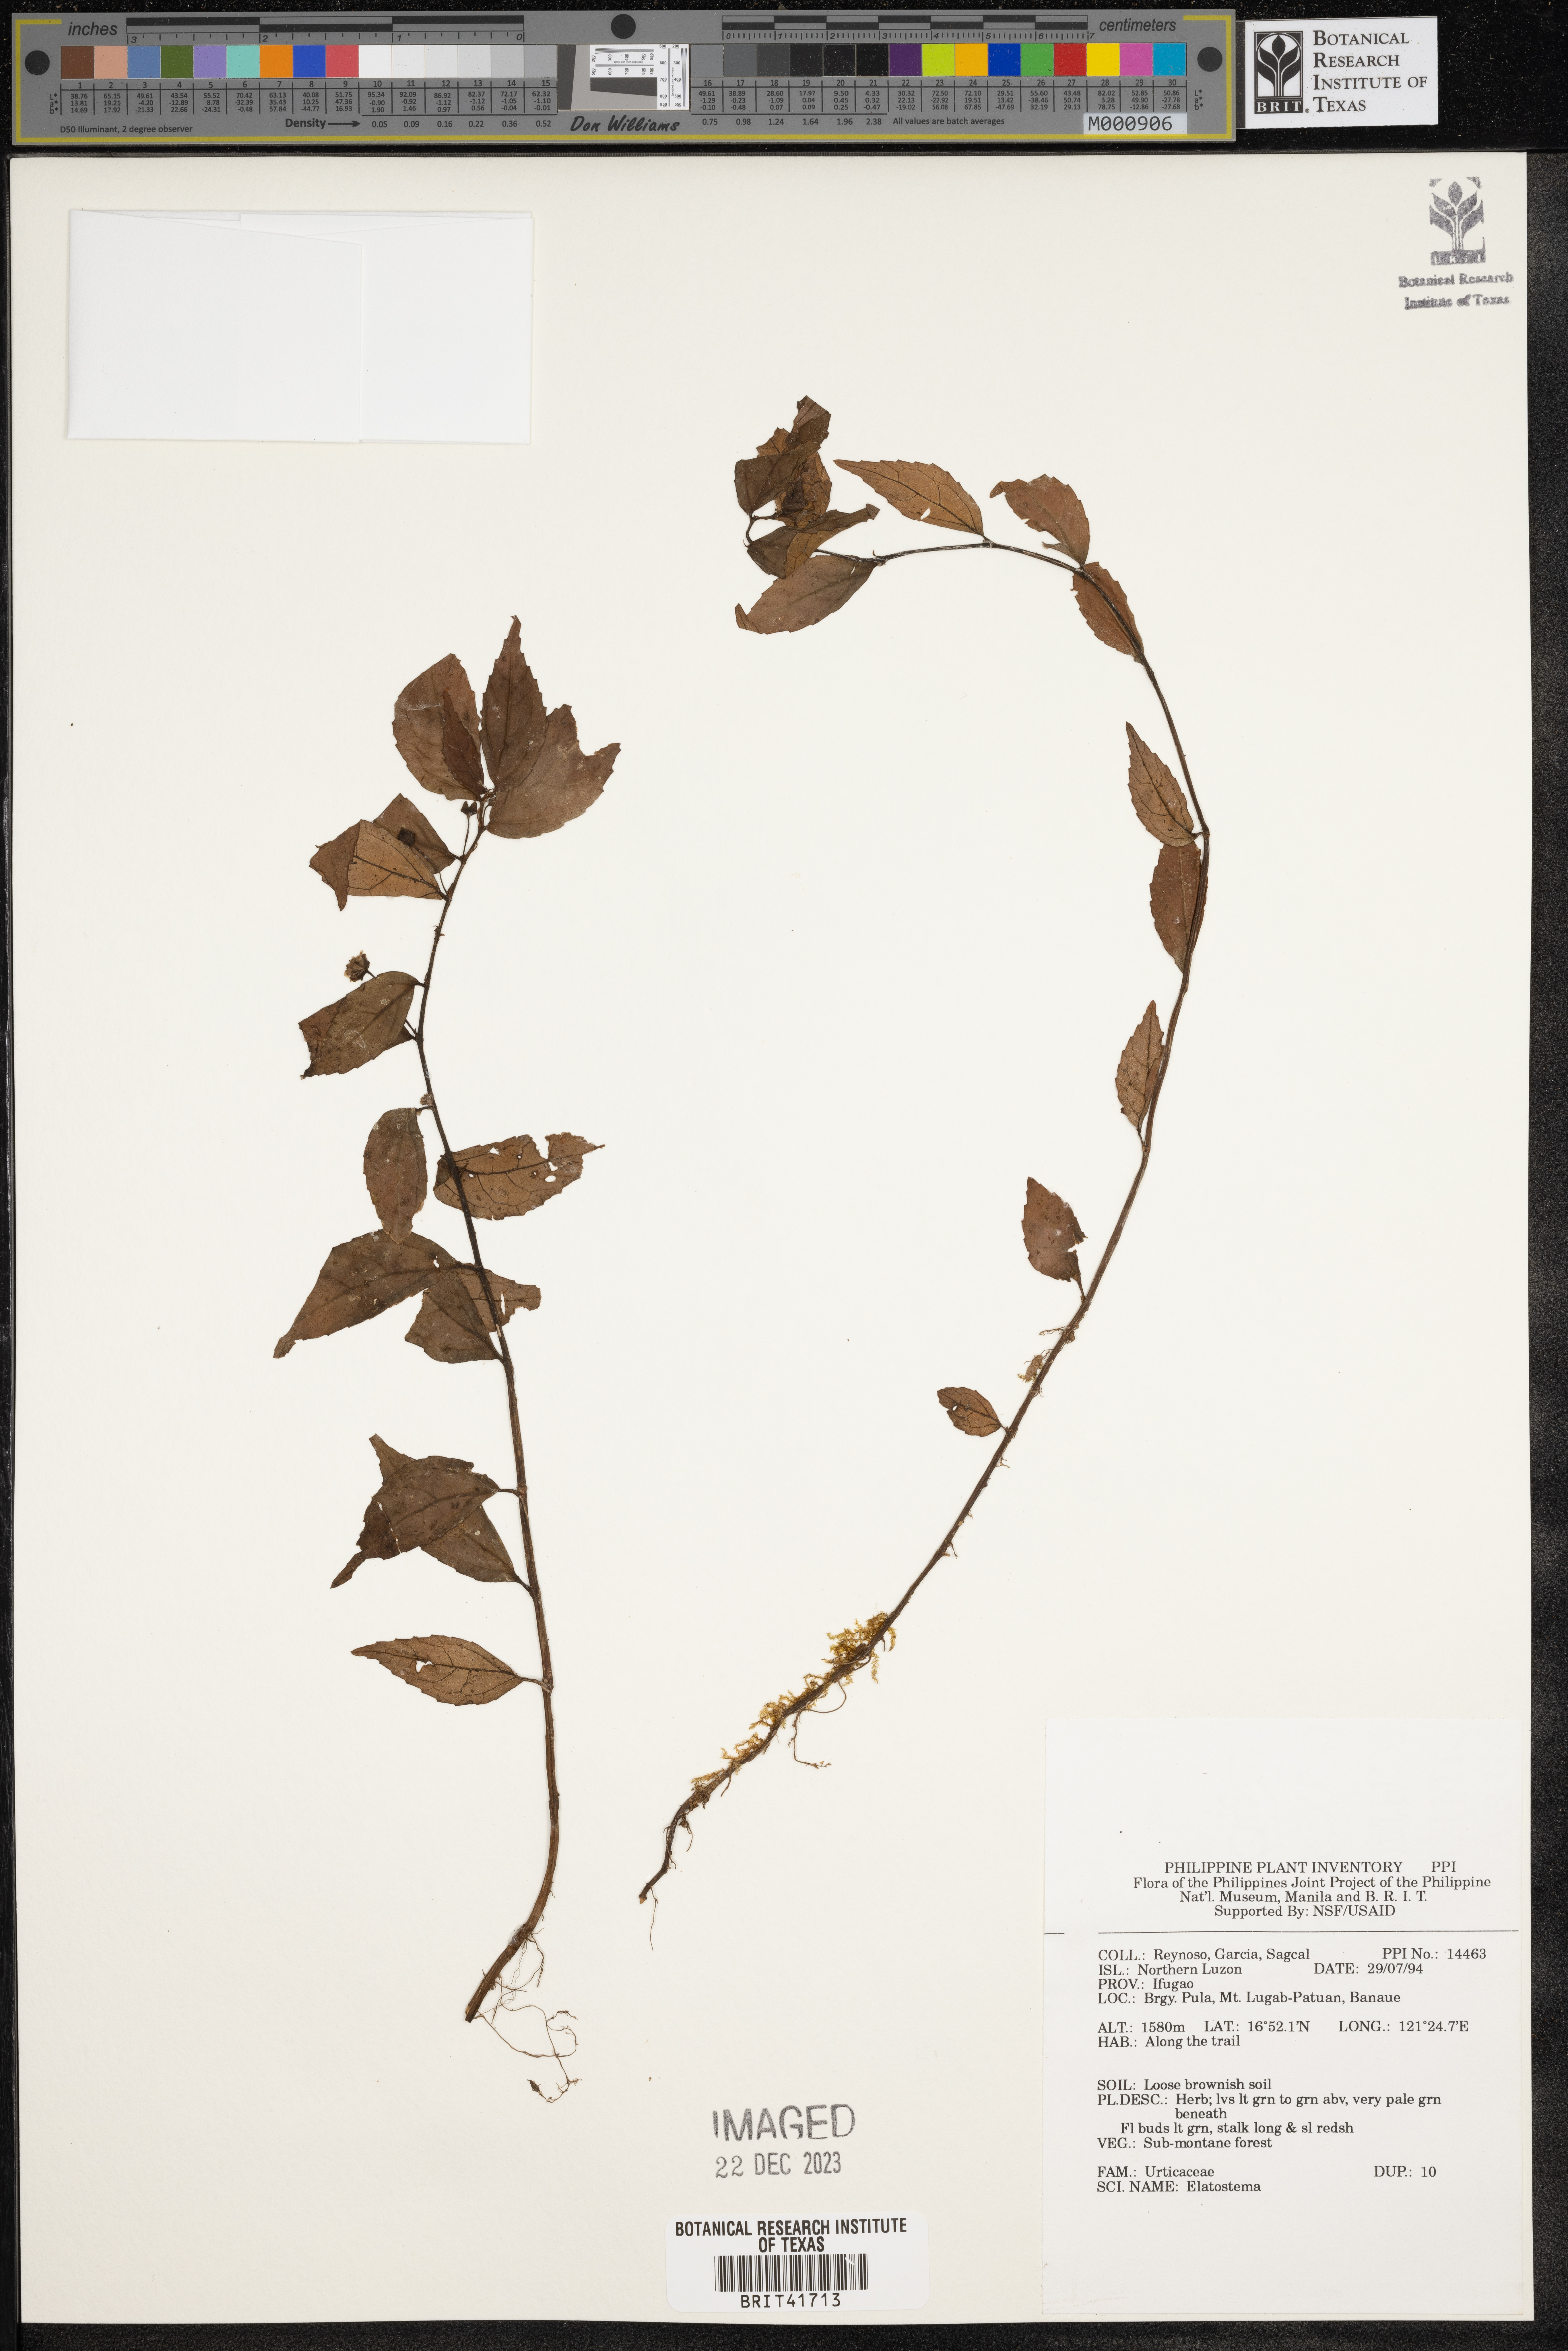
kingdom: Plantae
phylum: Tracheophyta
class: Magnoliopsida
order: Rosales
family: Urticaceae
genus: Elatostema
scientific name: Elatostema
